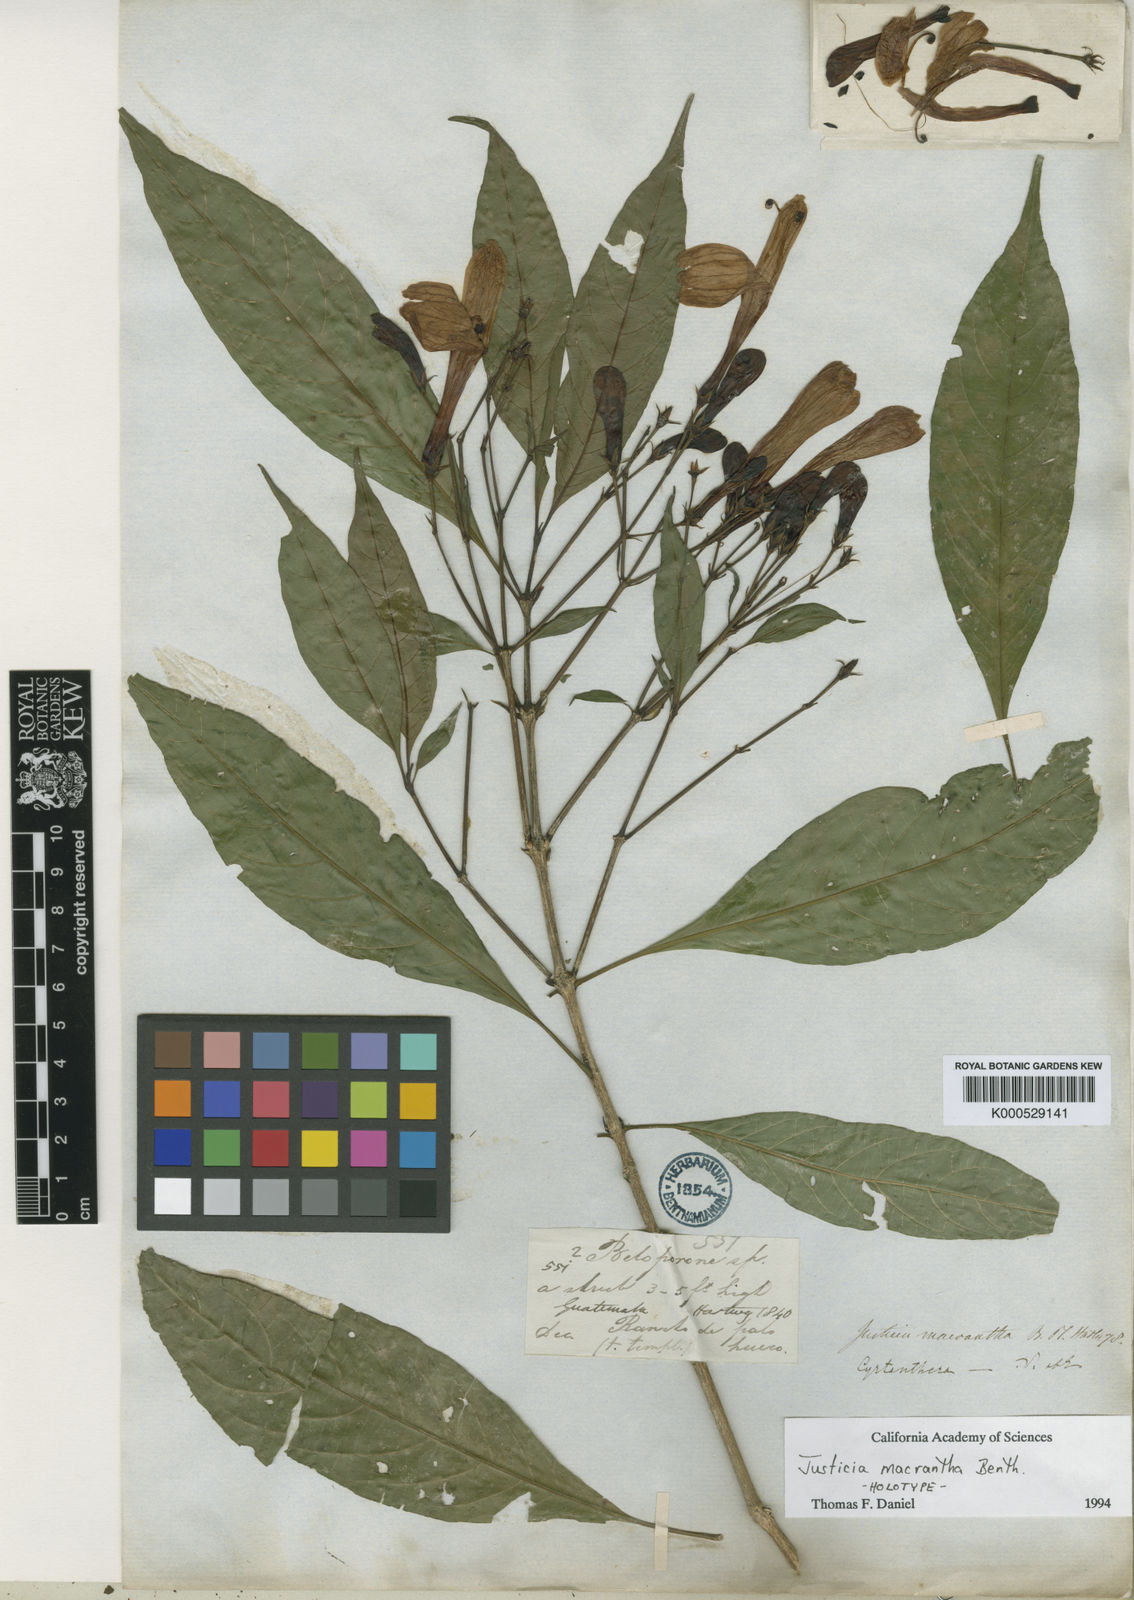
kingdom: Plantae
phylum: Tracheophyta
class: Magnoliopsida
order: Lamiales
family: Acanthaceae
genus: Justicia
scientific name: Justicia macrantha
